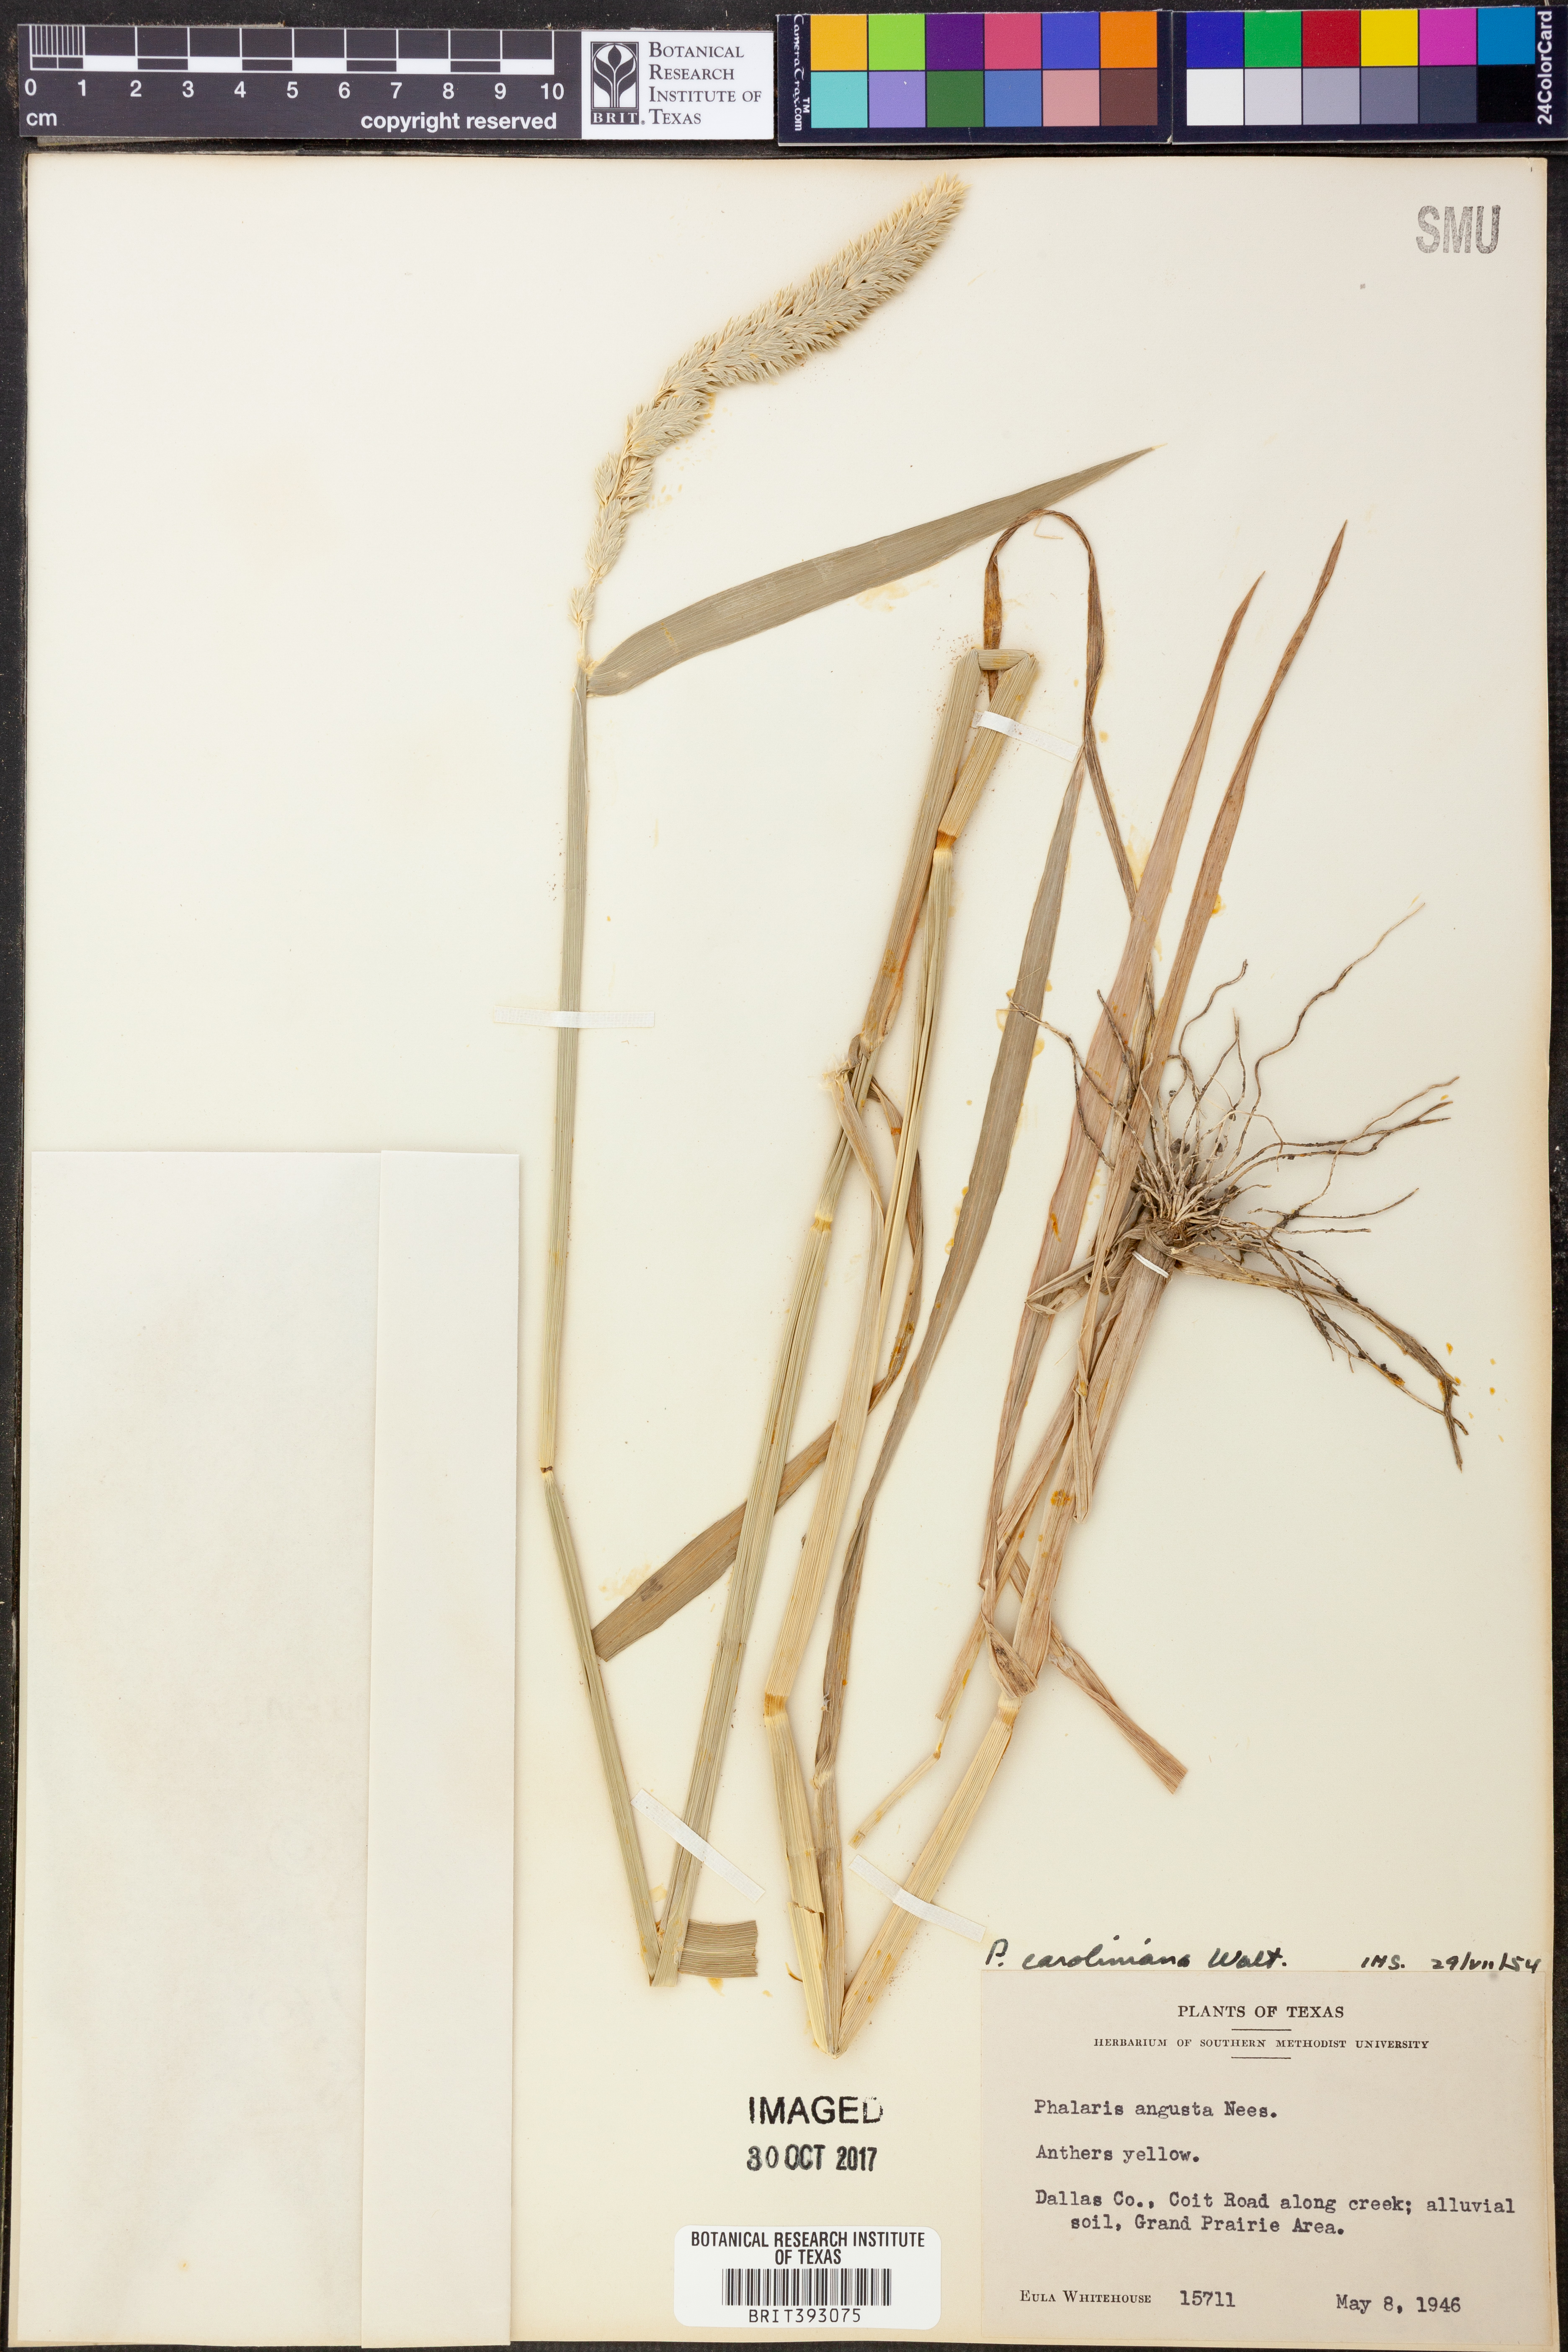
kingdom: Plantae
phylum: Tracheophyta
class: Liliopsida
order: Poales
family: Poaceae
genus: Phalaris
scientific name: Phalaris caroliniana
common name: May grass
